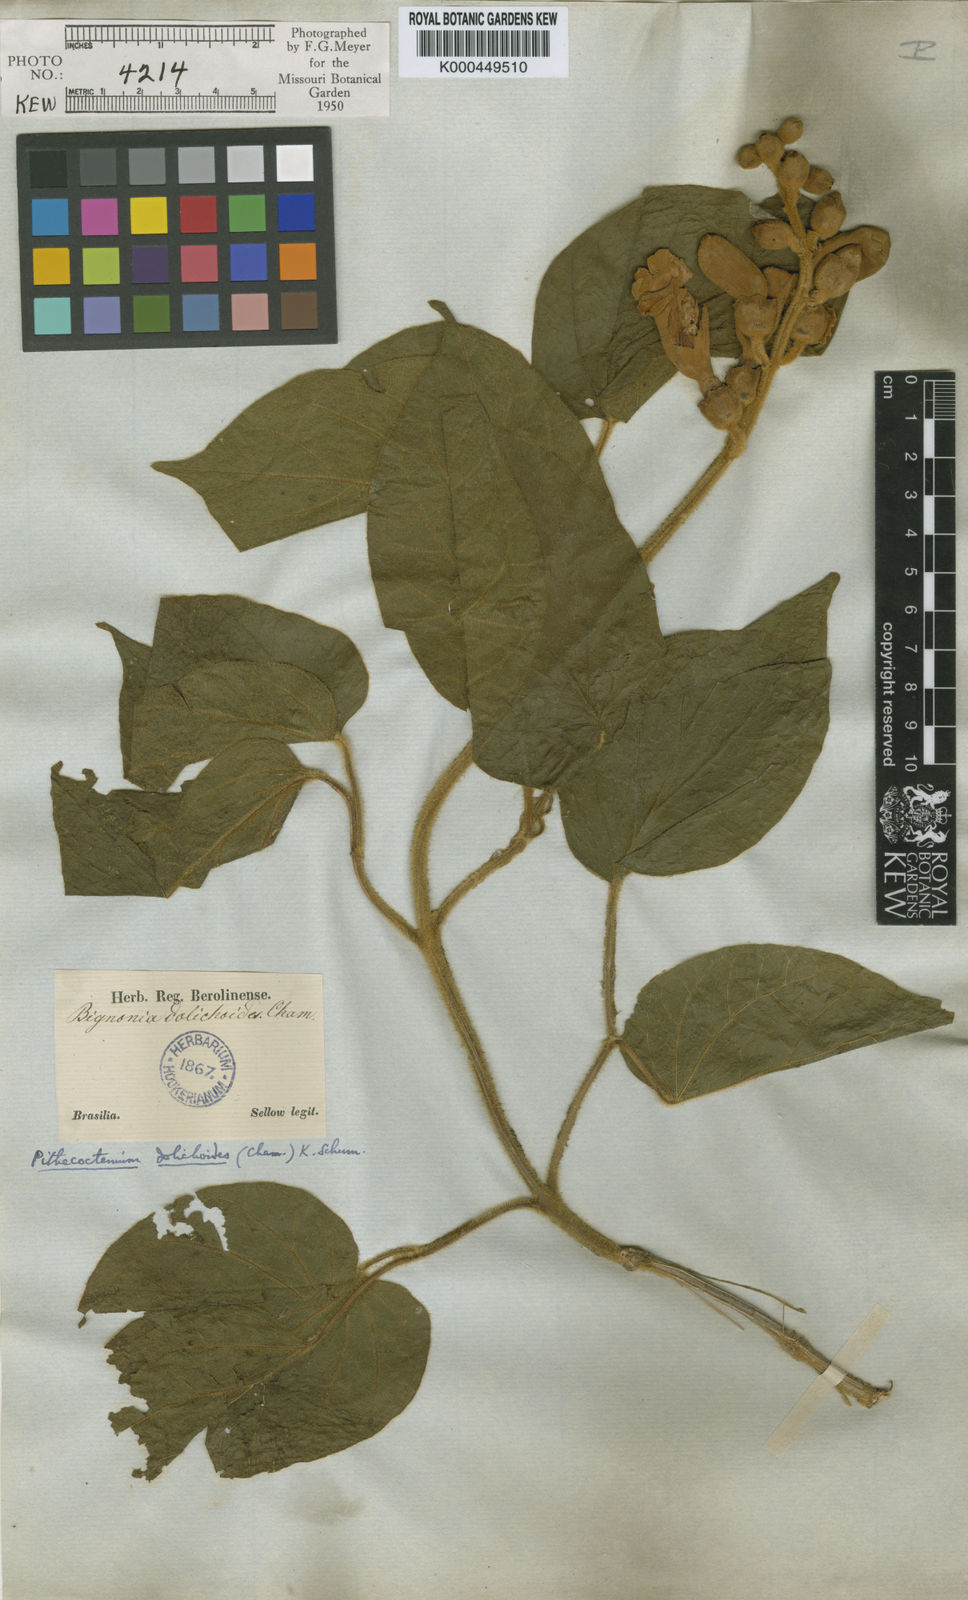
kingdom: Plantae
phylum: Tracheophyta
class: Magnoliopsida
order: Lamiales
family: Bignoniaceae
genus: Amphilophium
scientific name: Amphilophium dolichoides
